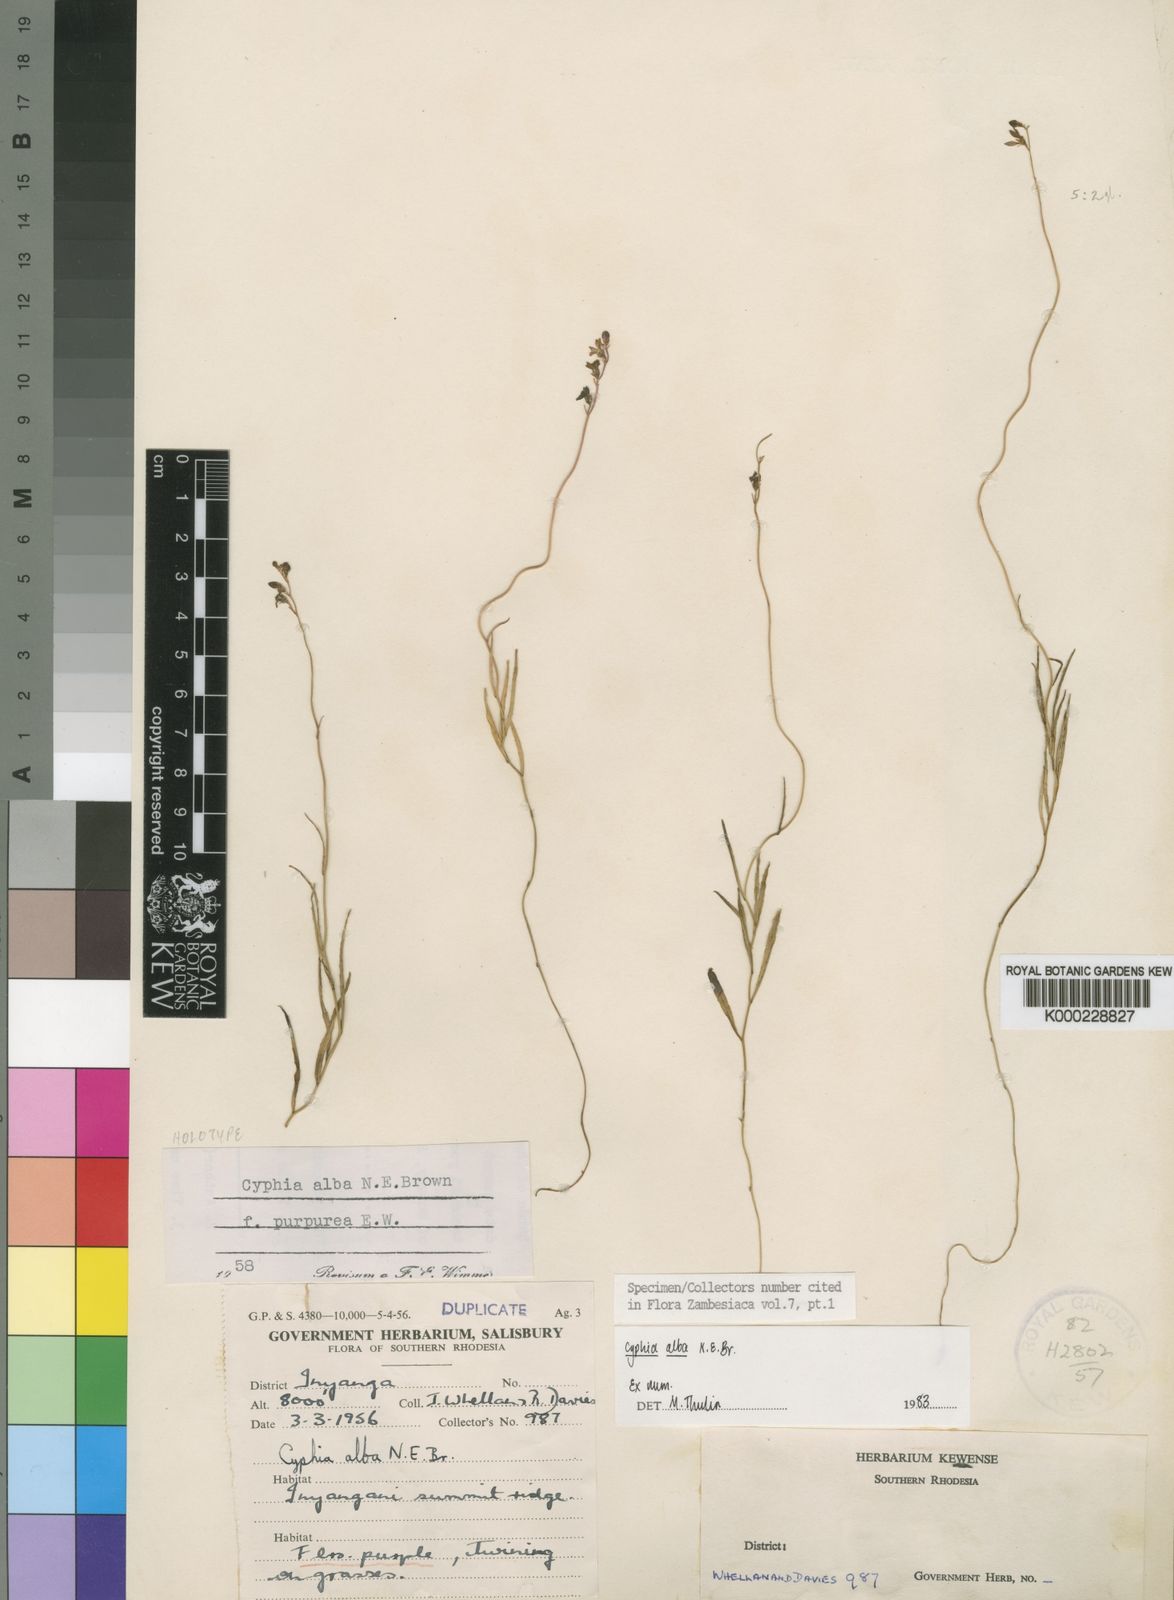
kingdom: Plantae
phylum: Tracheophyta
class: Magnoliopsida
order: Asterales
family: Campanulaceae
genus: Cyphia
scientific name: Cyphia alba
